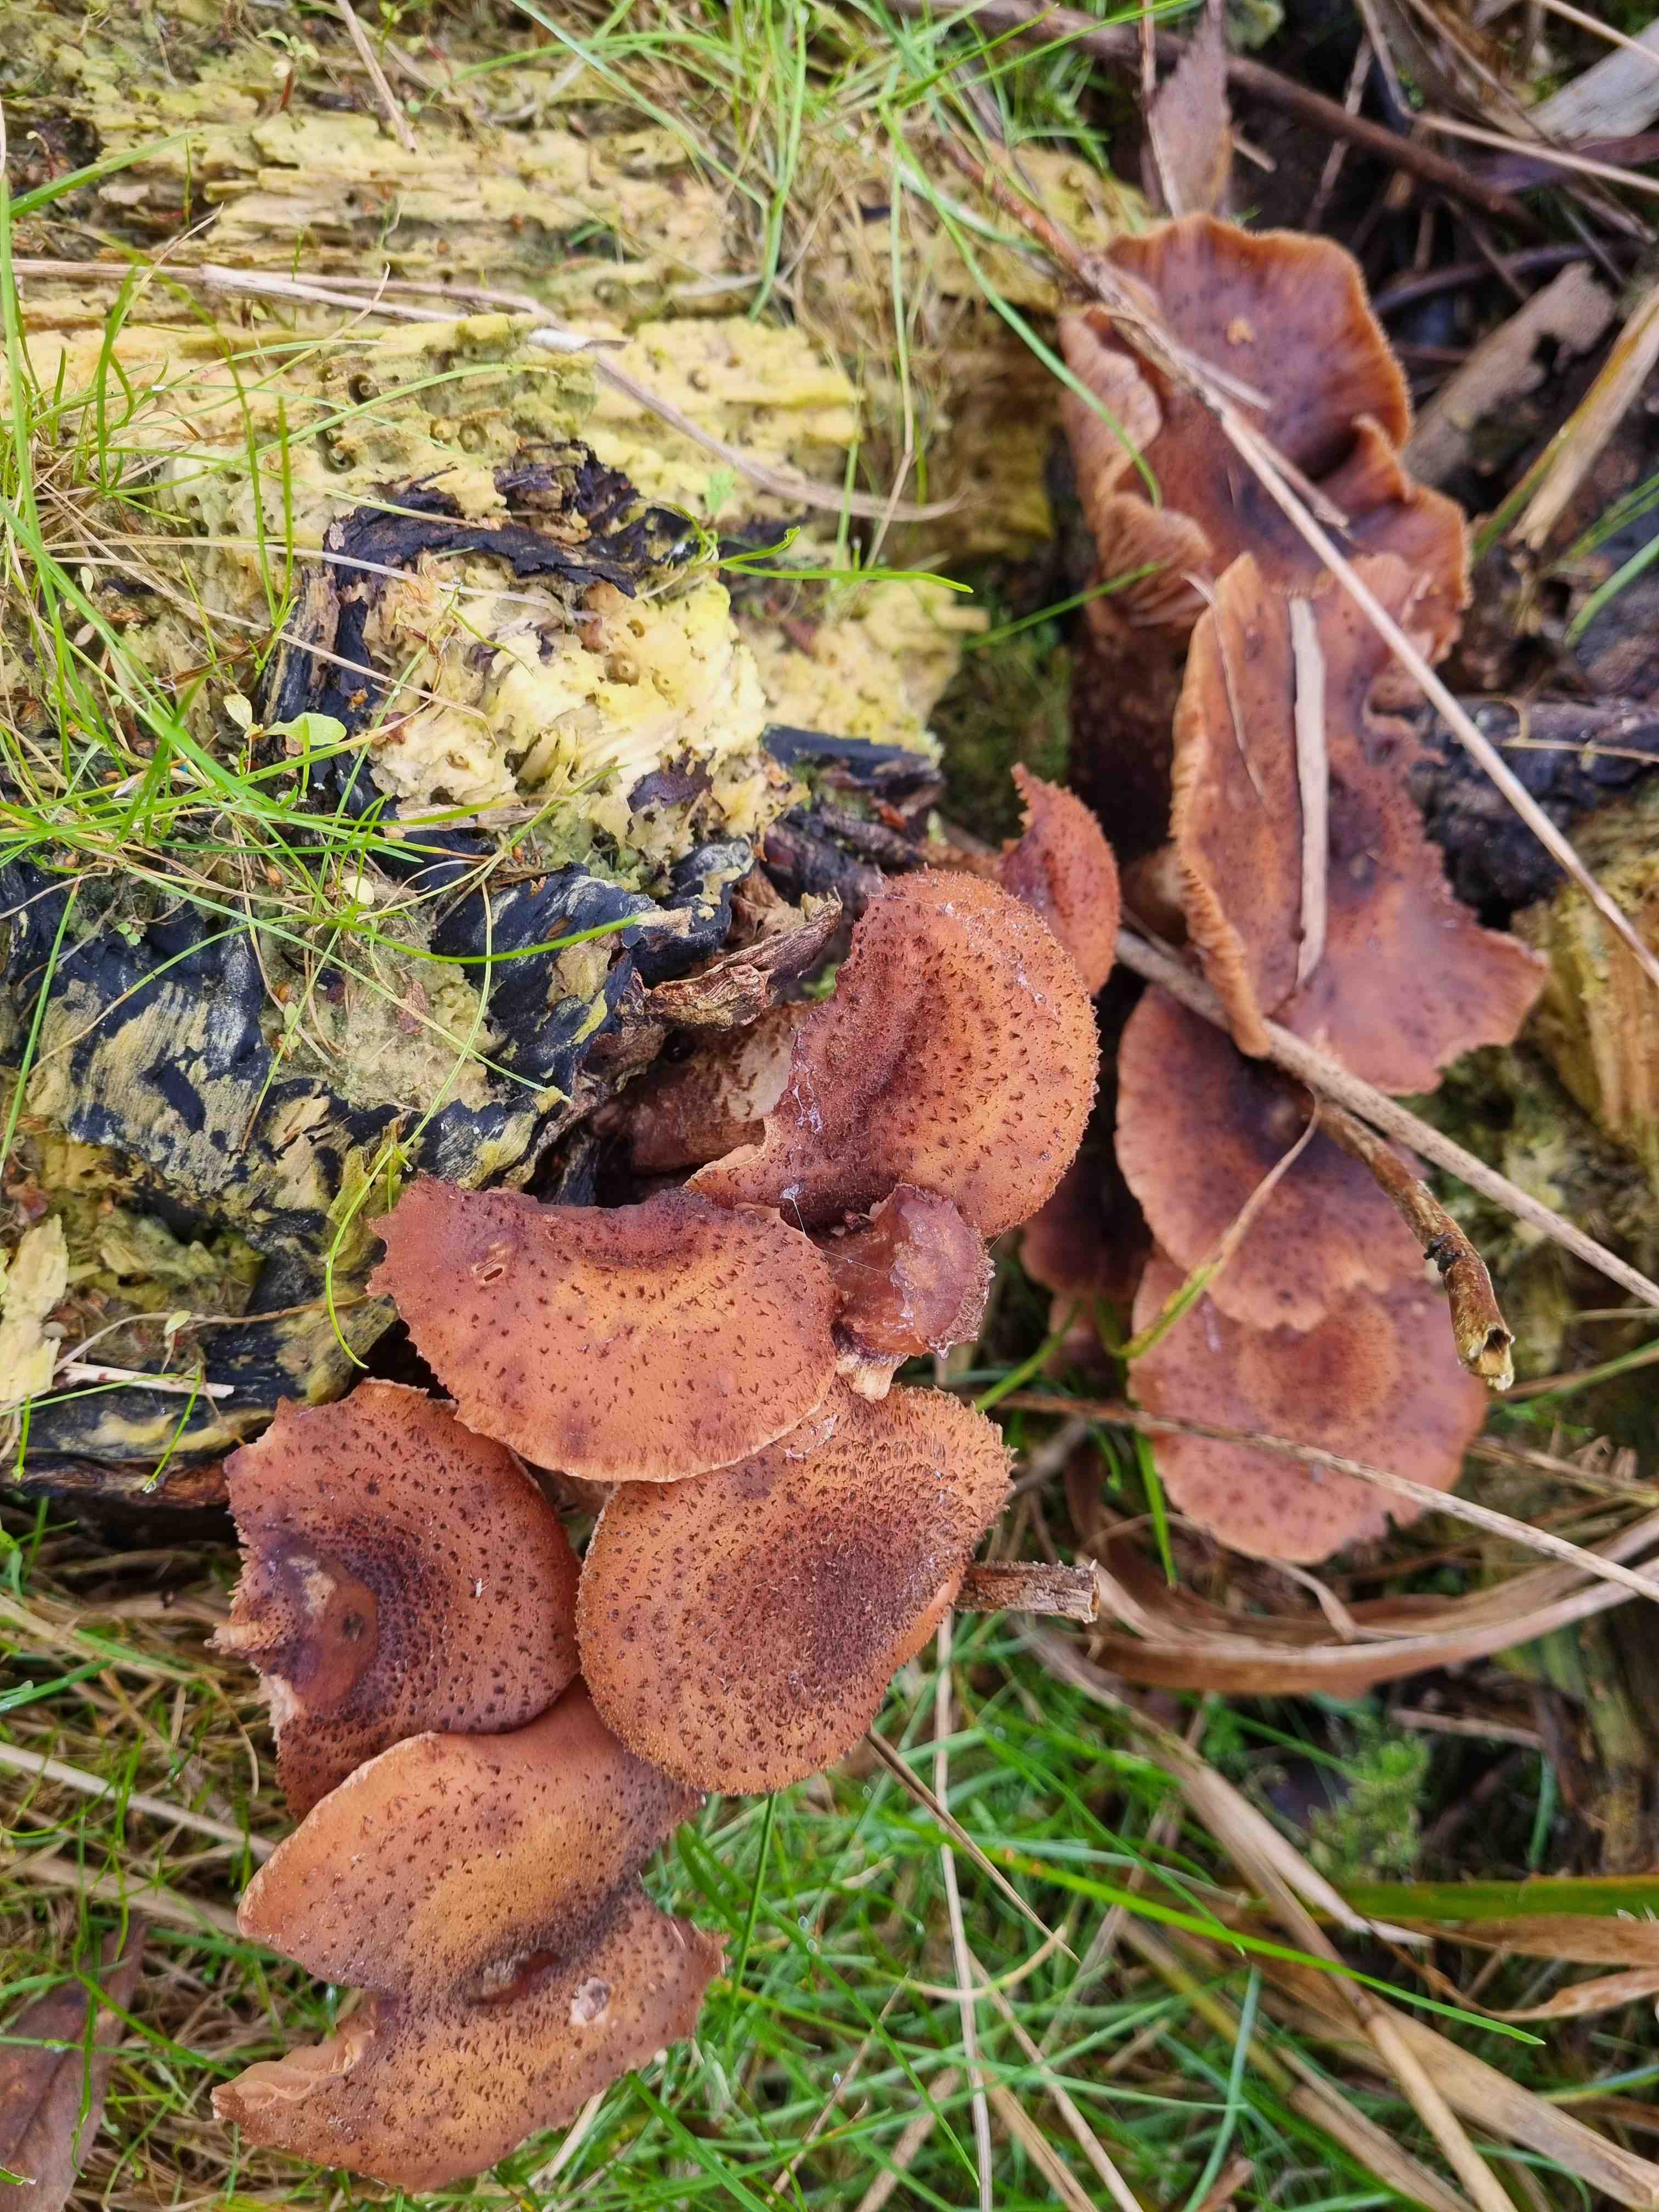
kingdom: Fungi
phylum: Basidiomycota
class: Agaricomycetes
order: Agaricales
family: Physalacriaceae
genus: Armillaria
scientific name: Armillaria ostoyae
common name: mørk honningsvamp
